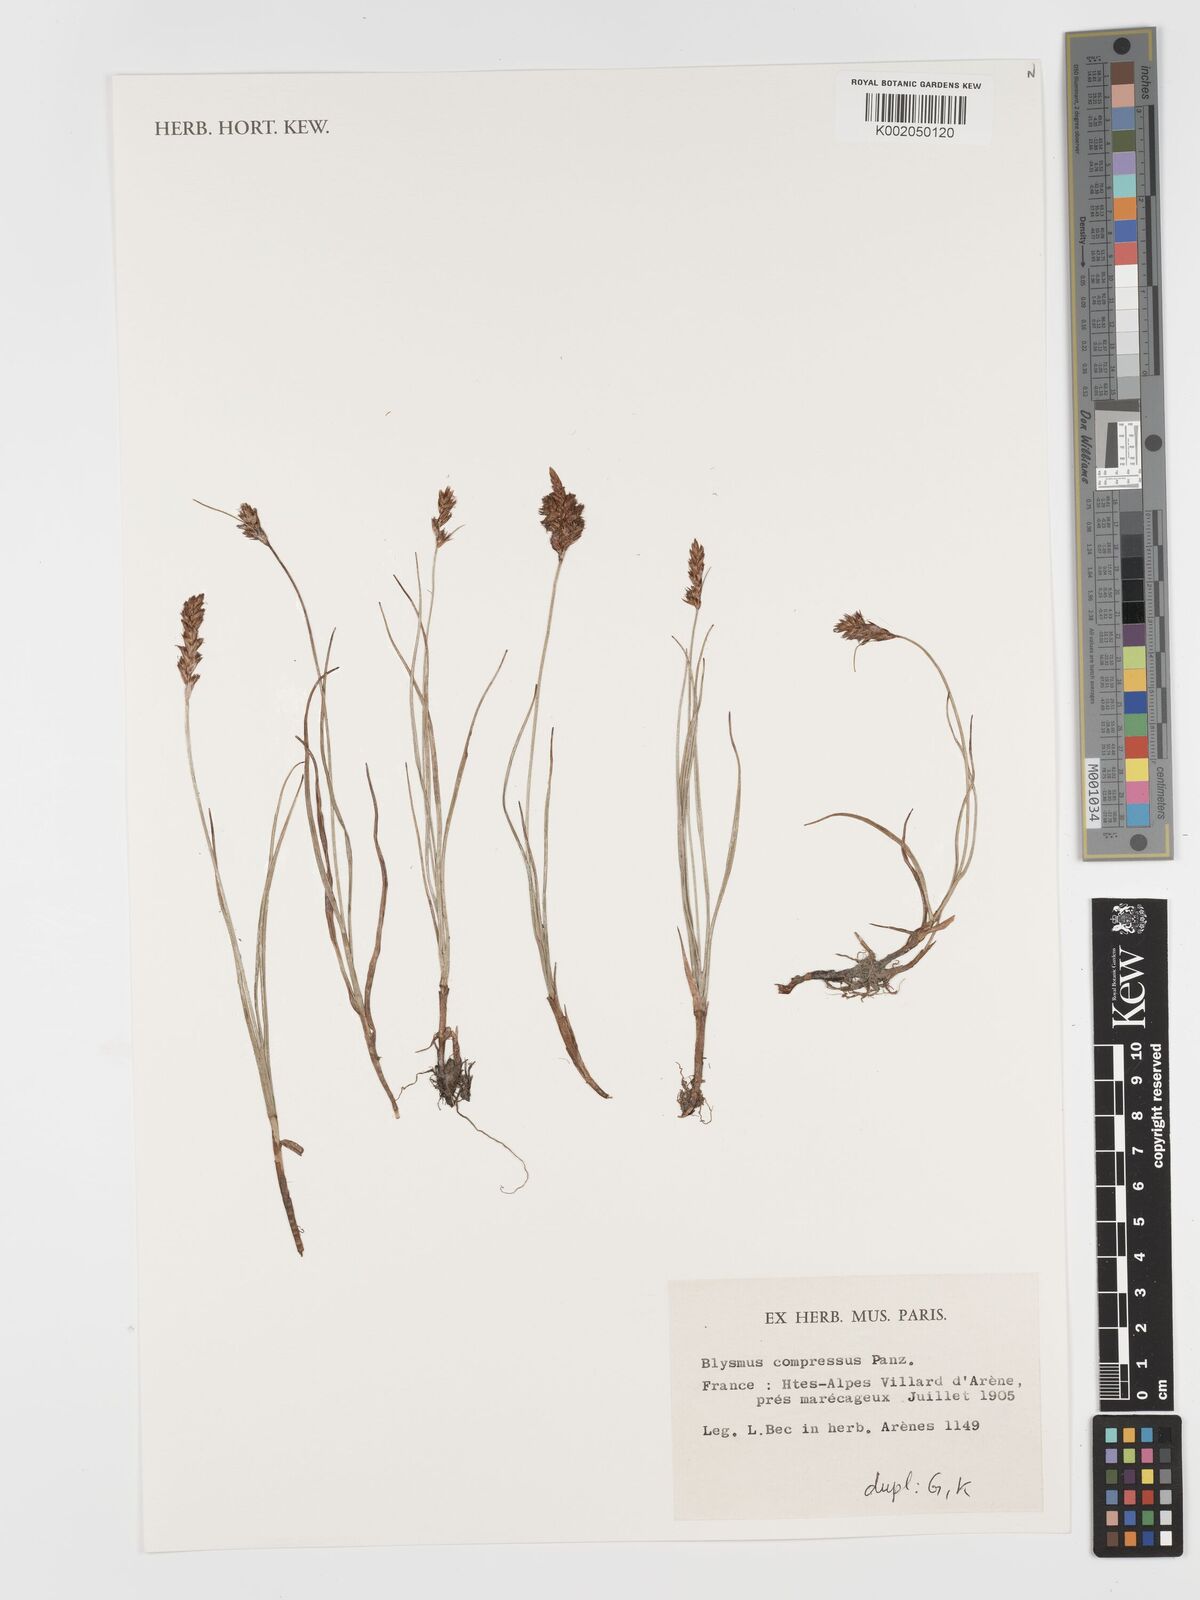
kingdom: Plantae
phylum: Tracheophyta
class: Liliopsida
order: Poales
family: Cyperaceae
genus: Blysmus
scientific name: Blysmus compressus
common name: Flat-sedge
